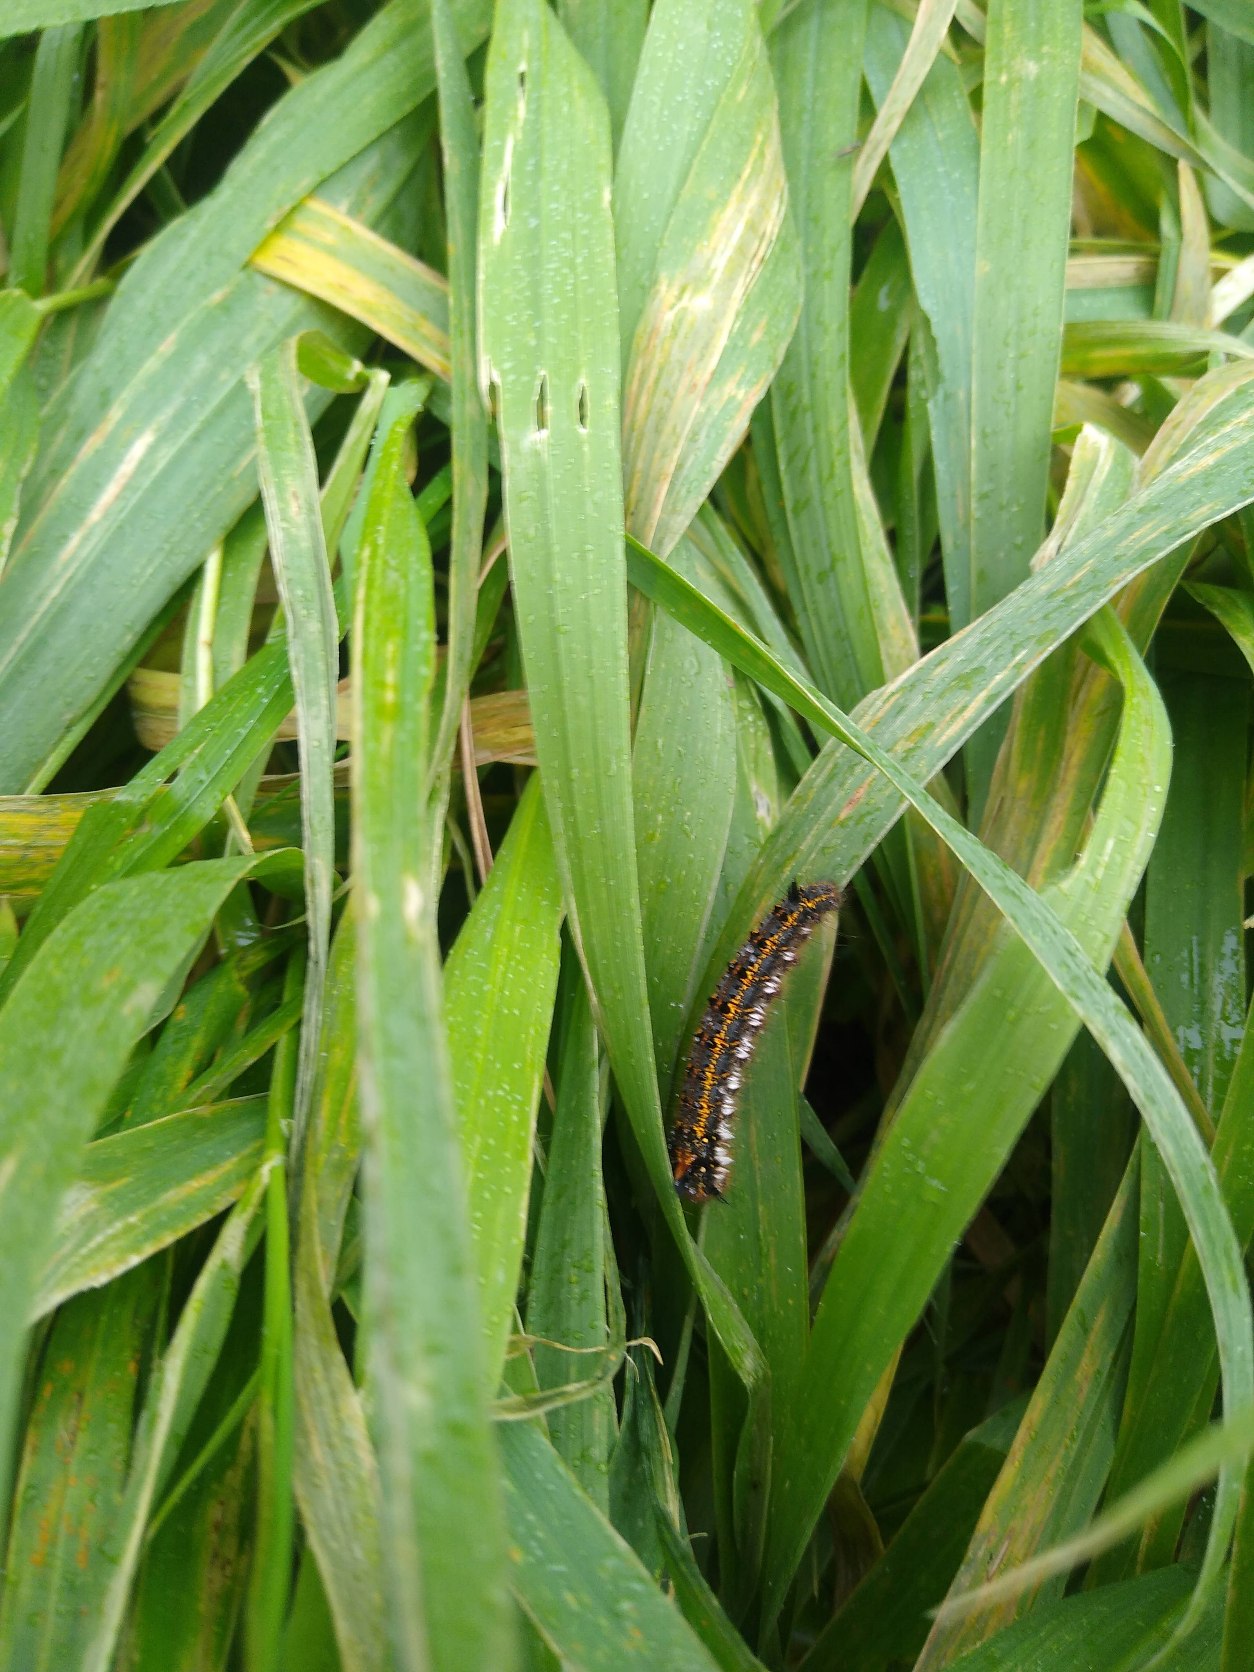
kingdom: Animalia
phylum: Arthropoda
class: Insecta
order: Lepidoptera
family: Lasiocampidae
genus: Euthrix
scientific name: Euthrix potatoria
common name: Græsspinder
